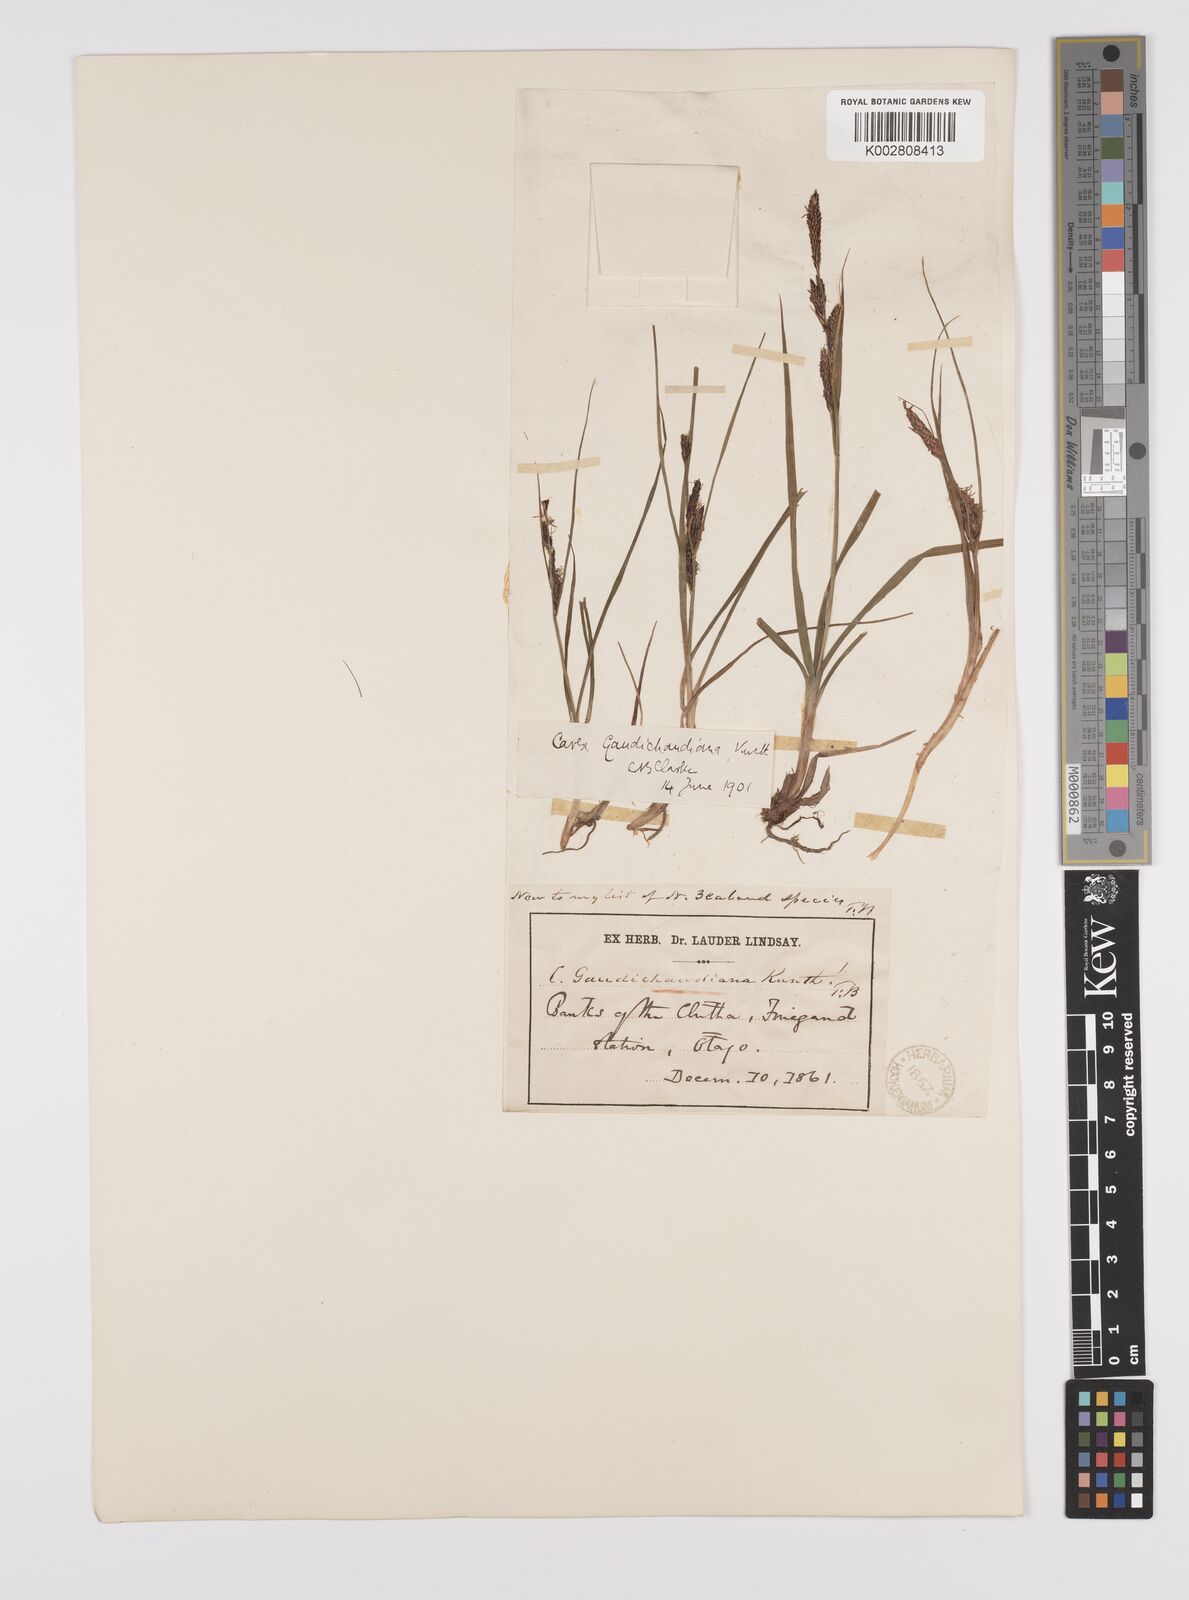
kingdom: Plantae
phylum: Tracheophyta
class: Liliopsida
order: Poales
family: Cyperaceae
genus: Carex
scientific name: Carex gaudichaudiana
